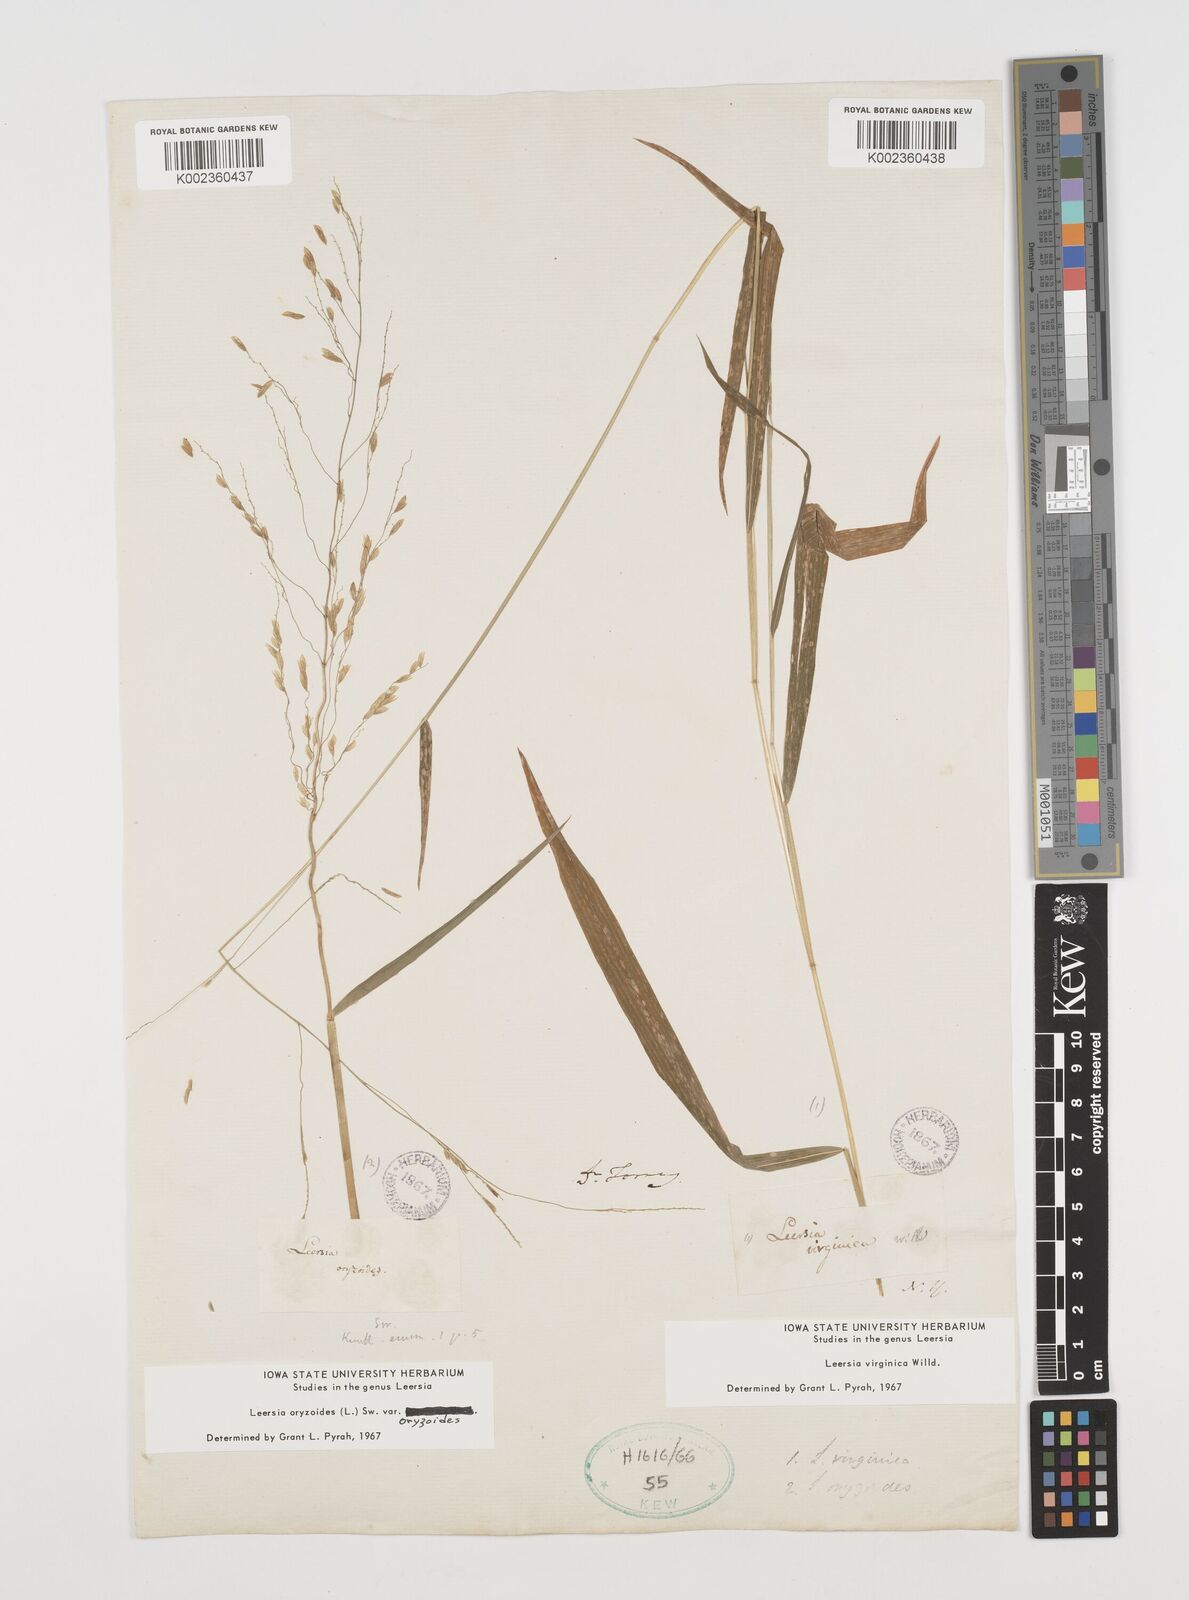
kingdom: Plantae
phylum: Tracheophyta
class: Liliopsida
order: Poales
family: Poaceae
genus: Leersia
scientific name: Leersia virginica
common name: White cutgrass
